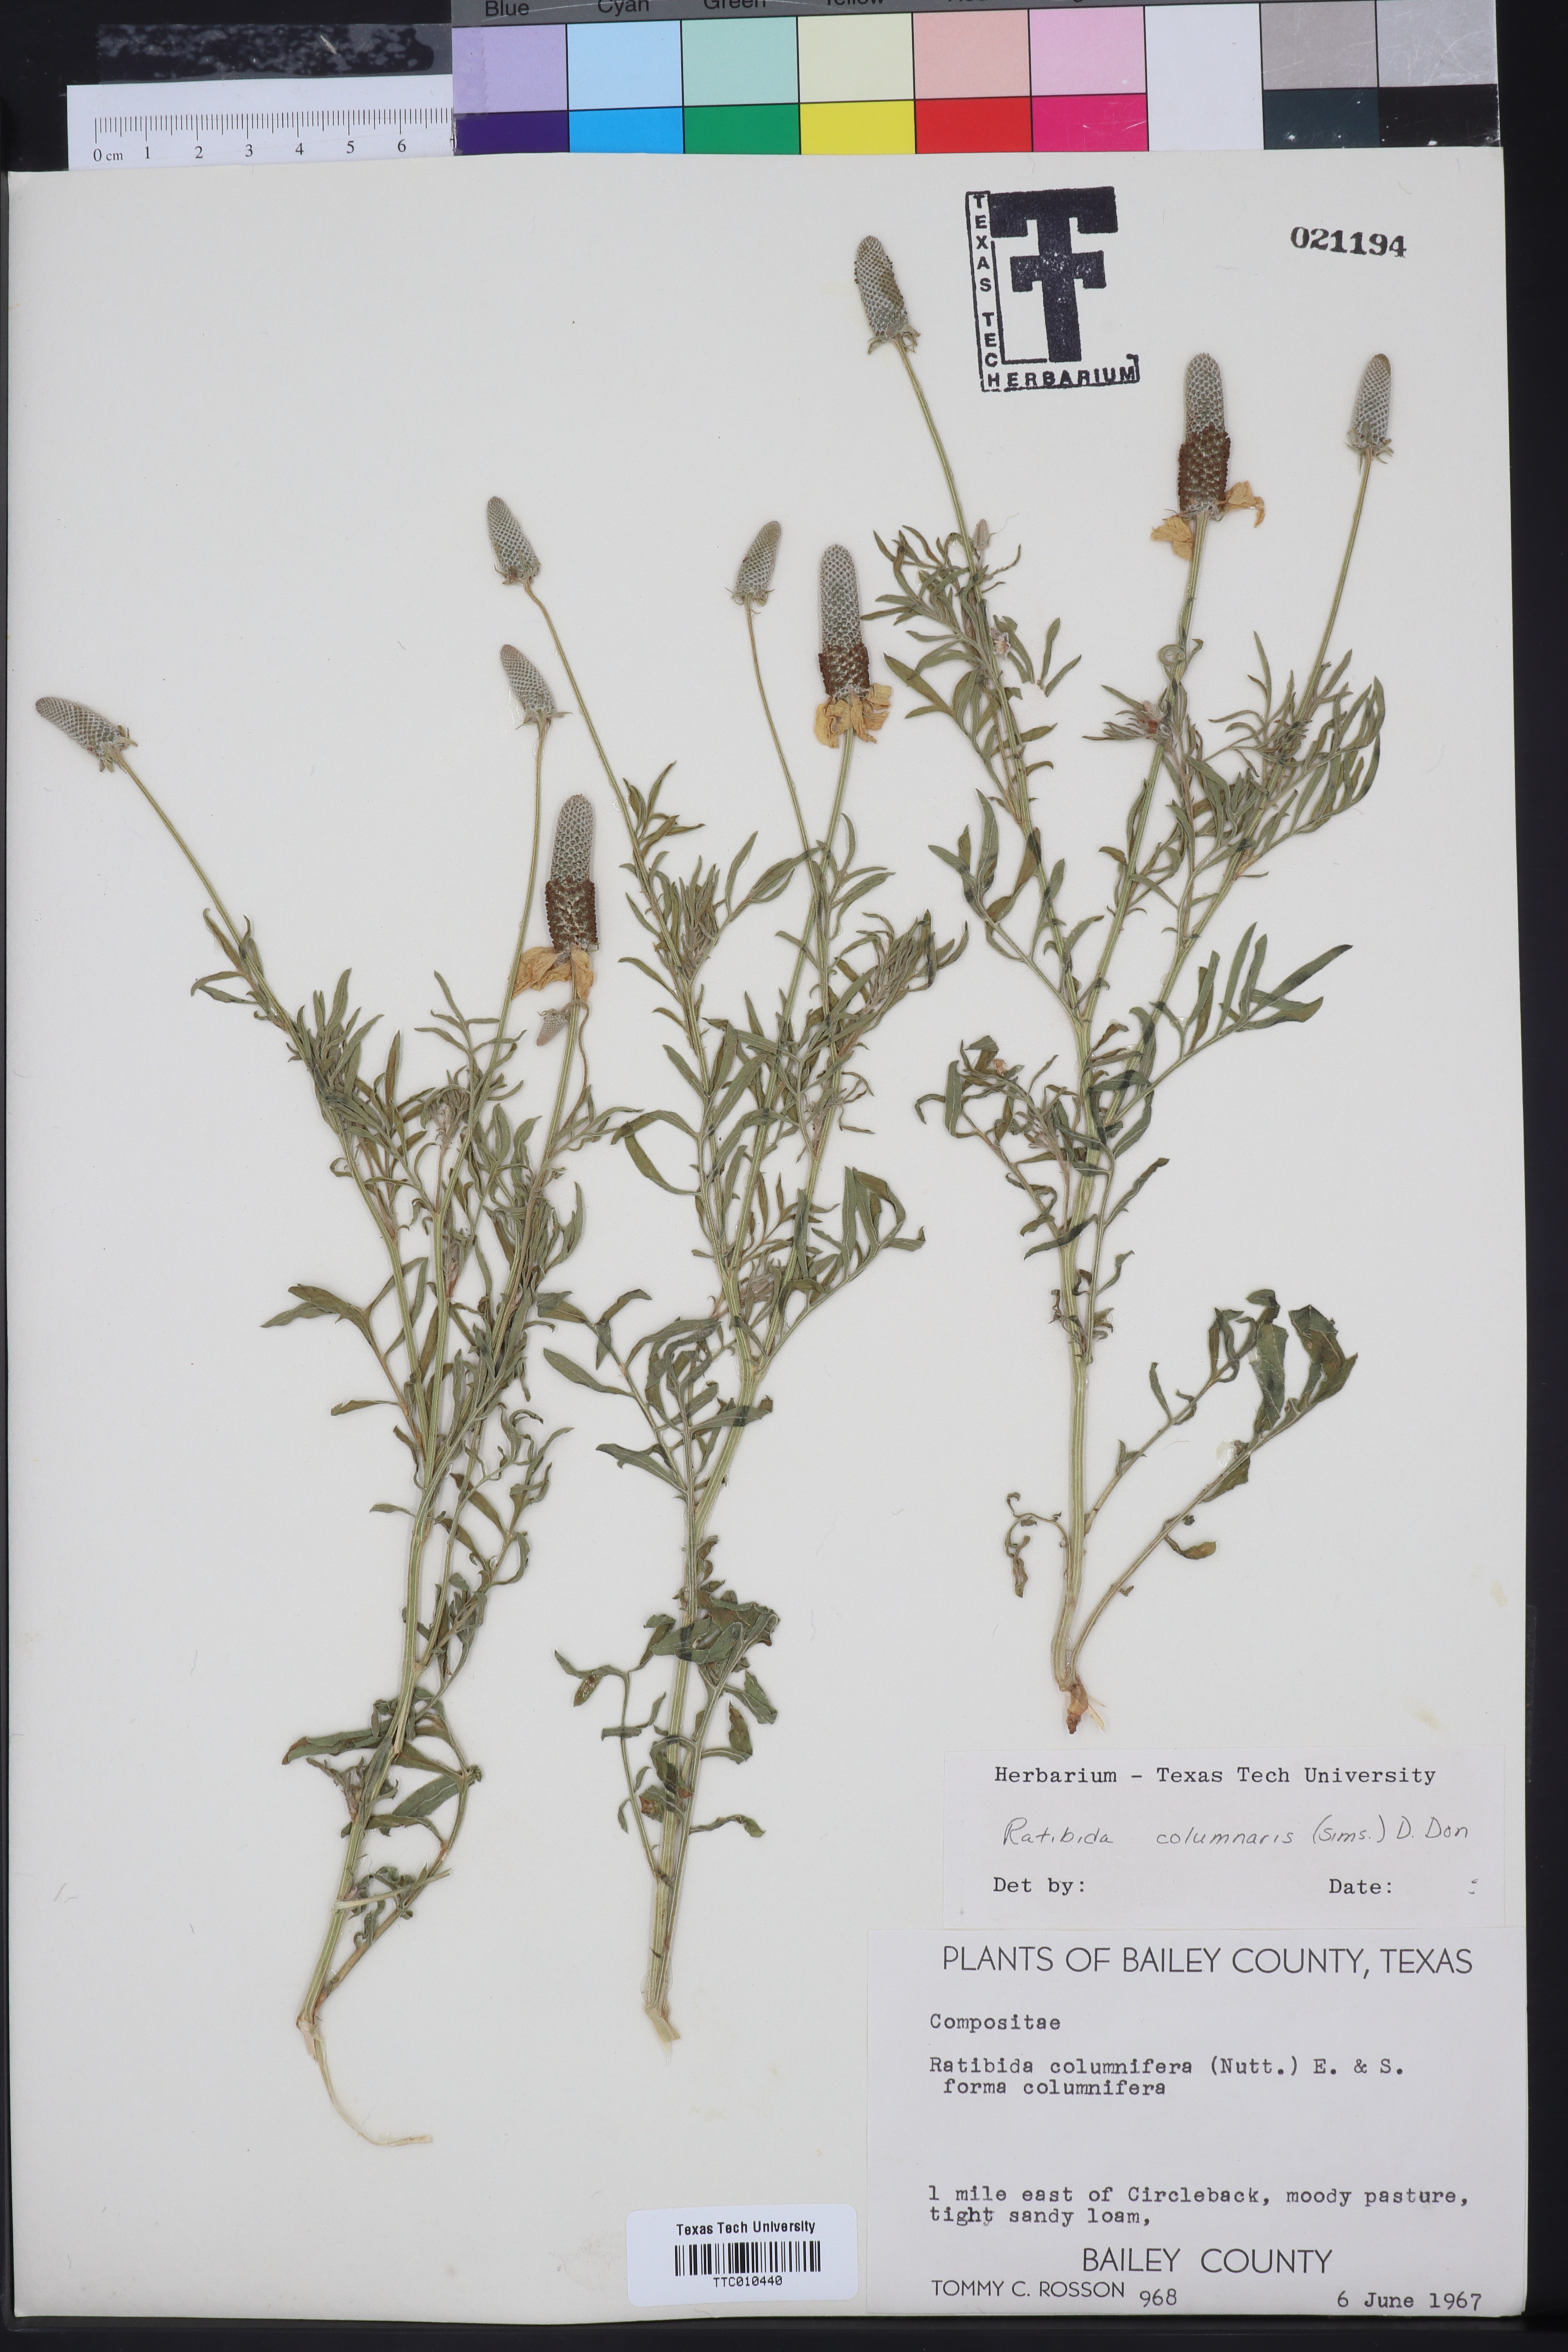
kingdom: Plantae
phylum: Tracheophyta
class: Magnoliopsida
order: Asterales
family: Asteraceae
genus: Ratibida
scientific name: Ratibida columnifera
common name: Prairie coneflower
